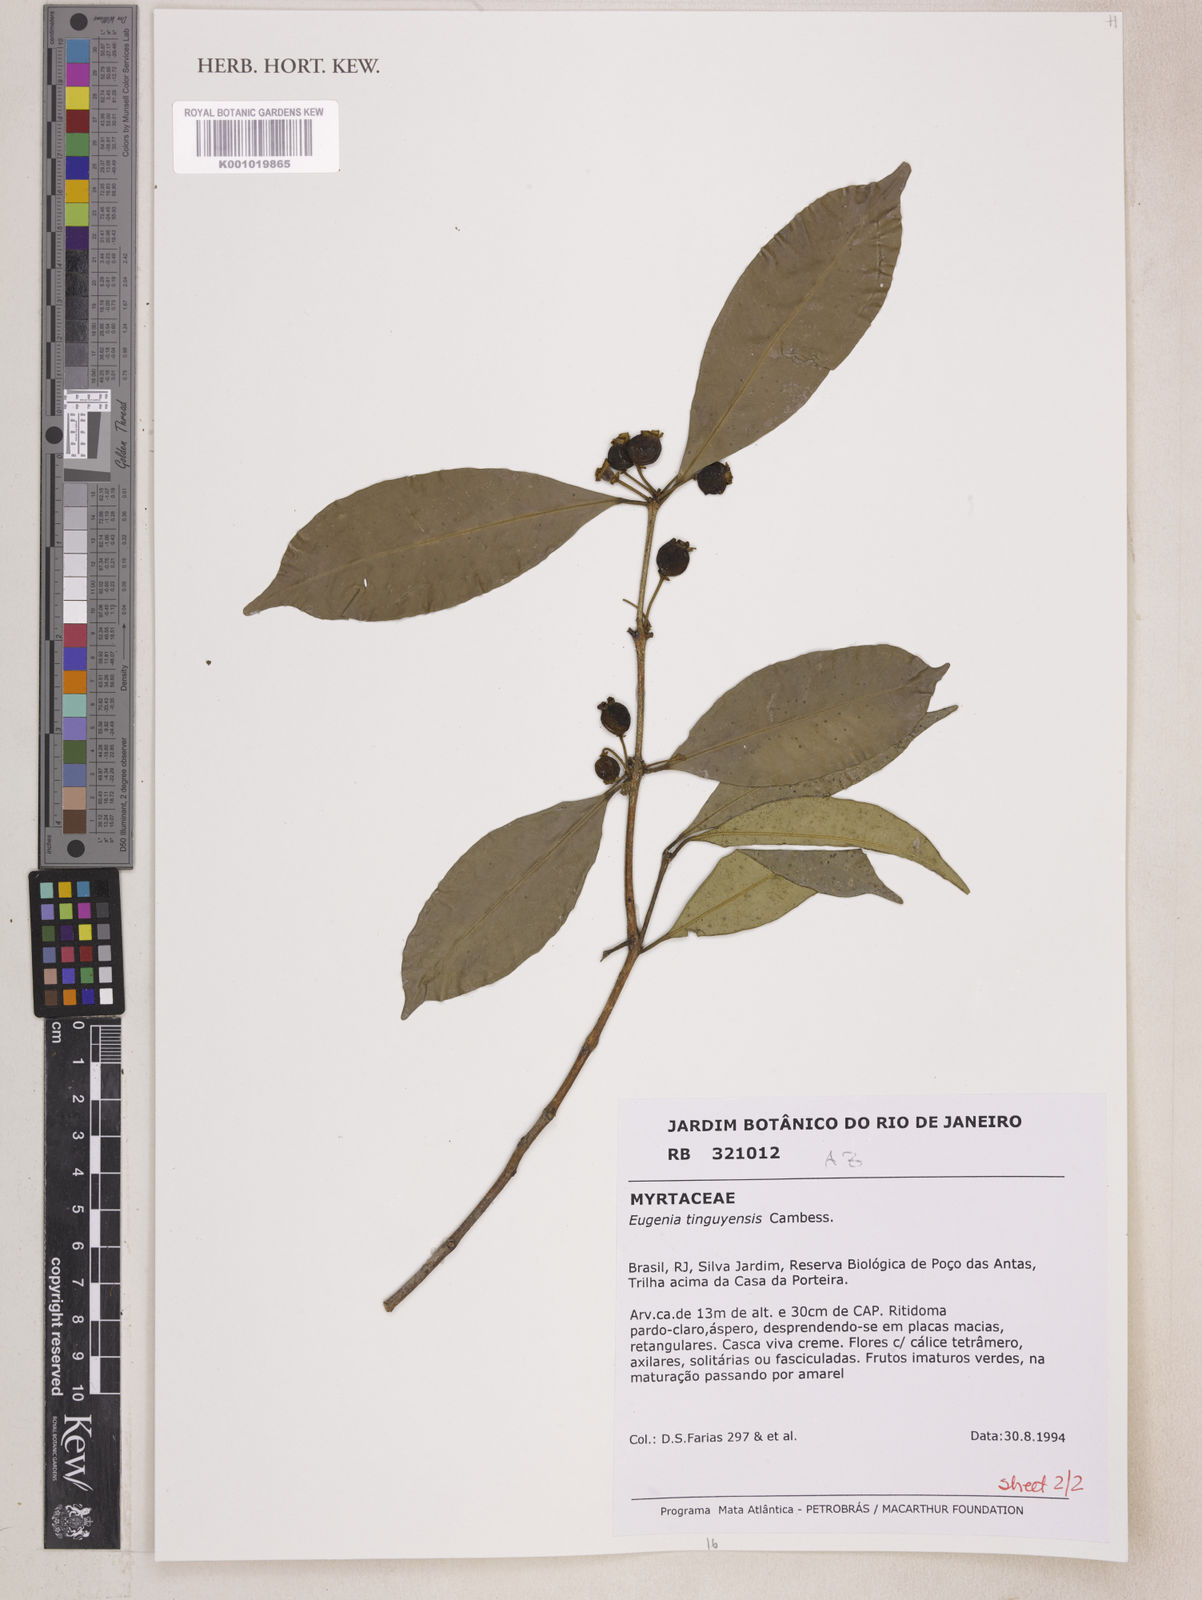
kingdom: Plantae
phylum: Tracheophyta
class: Magnoliopsida
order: Myrtales
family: Myrtaceae
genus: Eugenia
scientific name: Eugenia pisiformis
